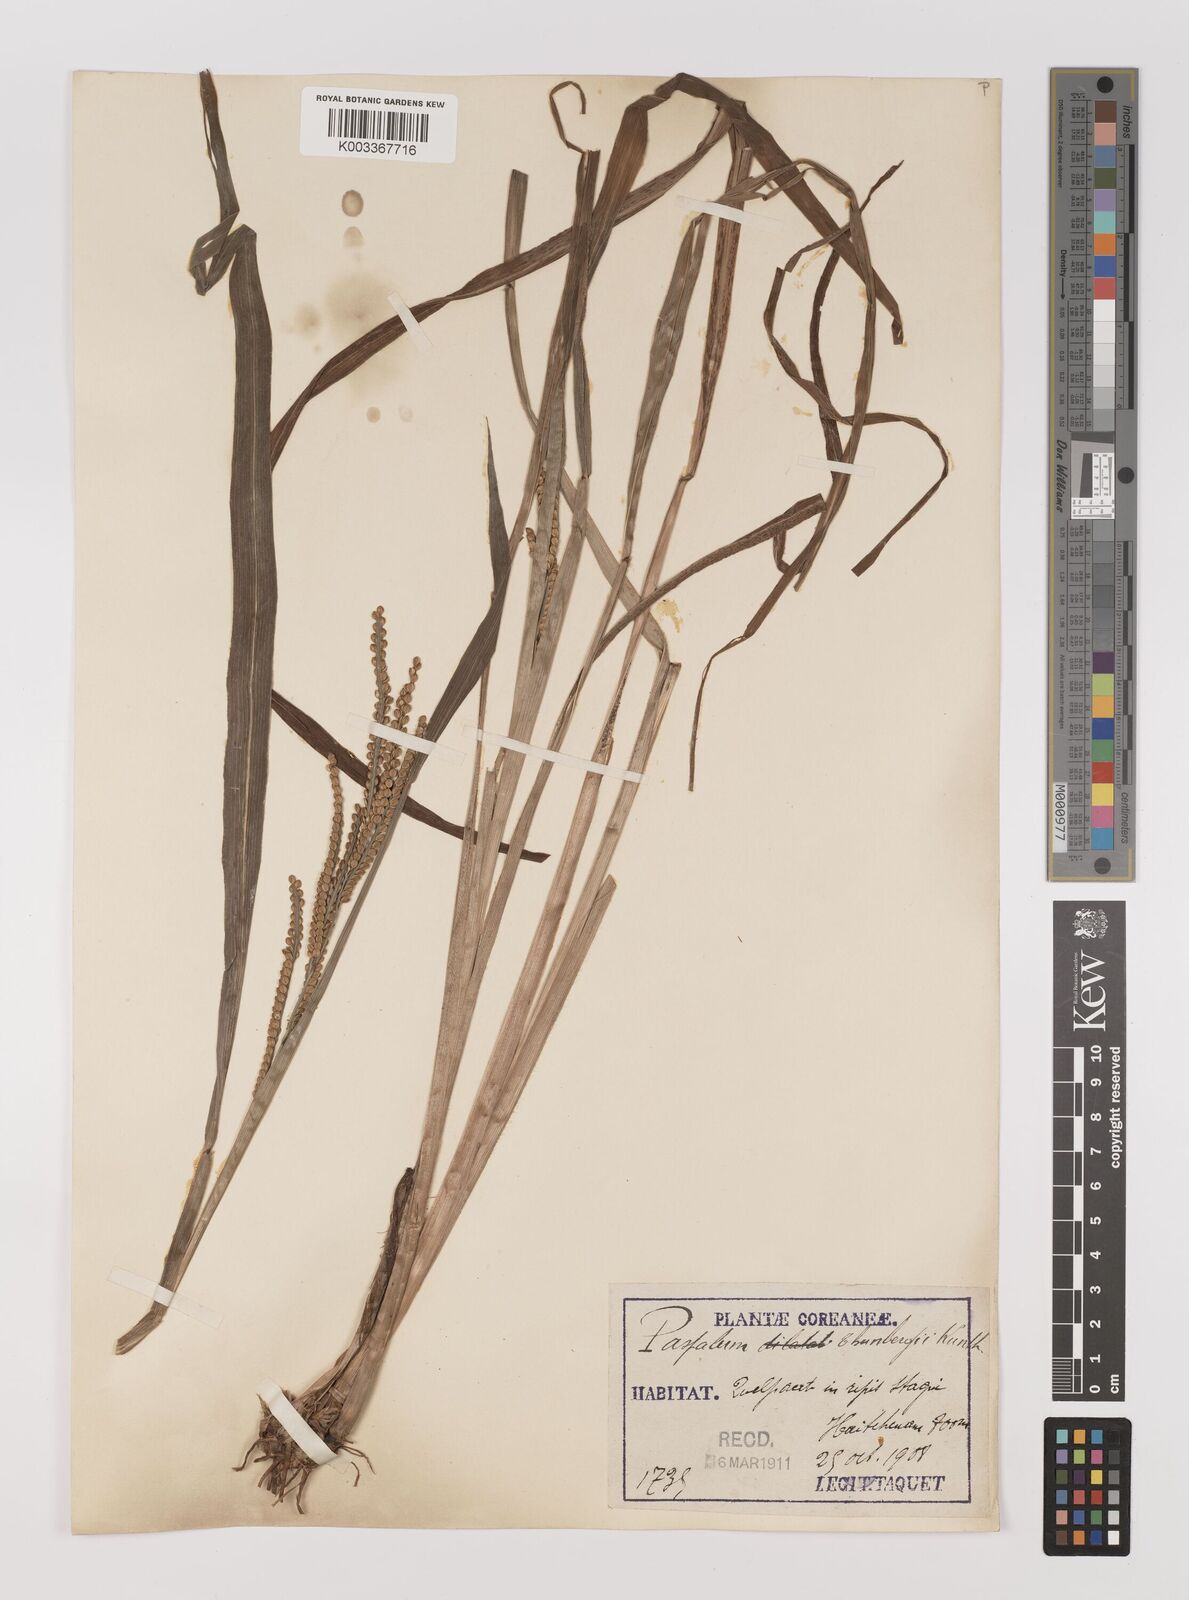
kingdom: Plantae
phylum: Tracheophyta
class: Liliopsida
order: Poales
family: Poaceae
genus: Panicum
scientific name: Panicum
